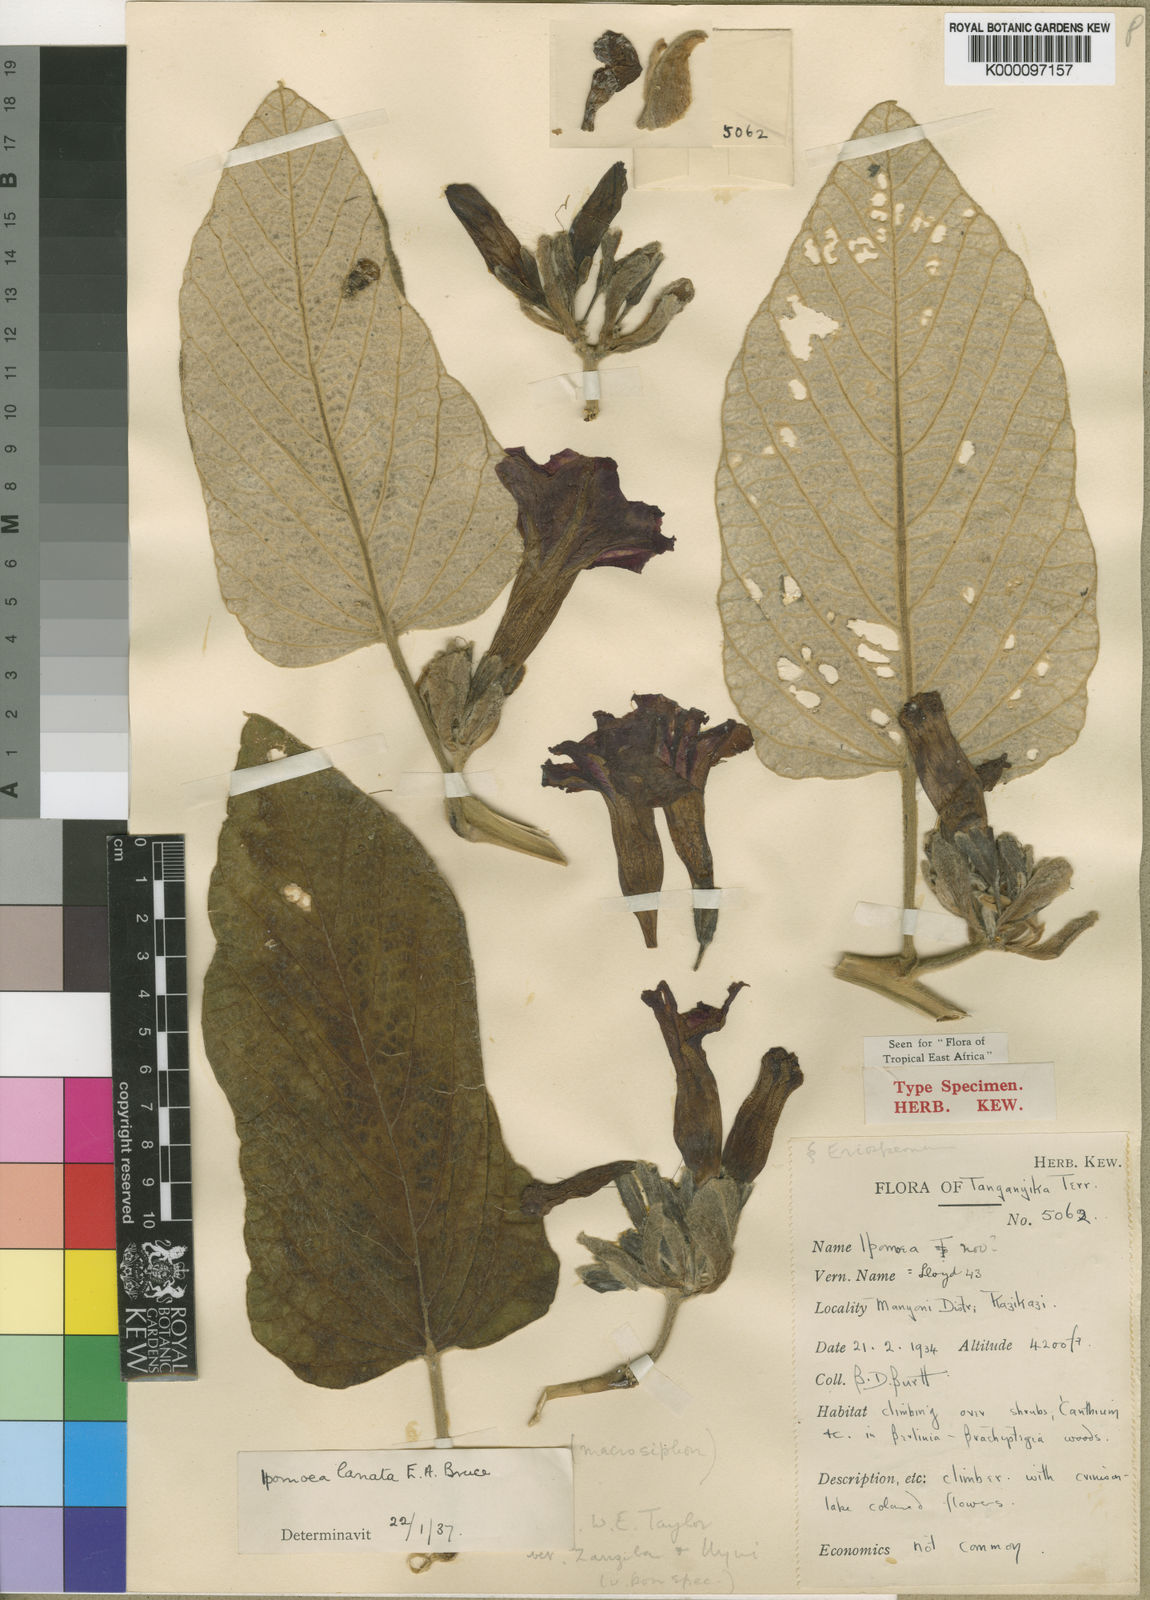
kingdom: Plantae
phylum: Tracheophyta
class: Magnoliopsida
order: Solanales
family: Convolvulaceae
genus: Ipomoea
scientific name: Ipomoea lanata
